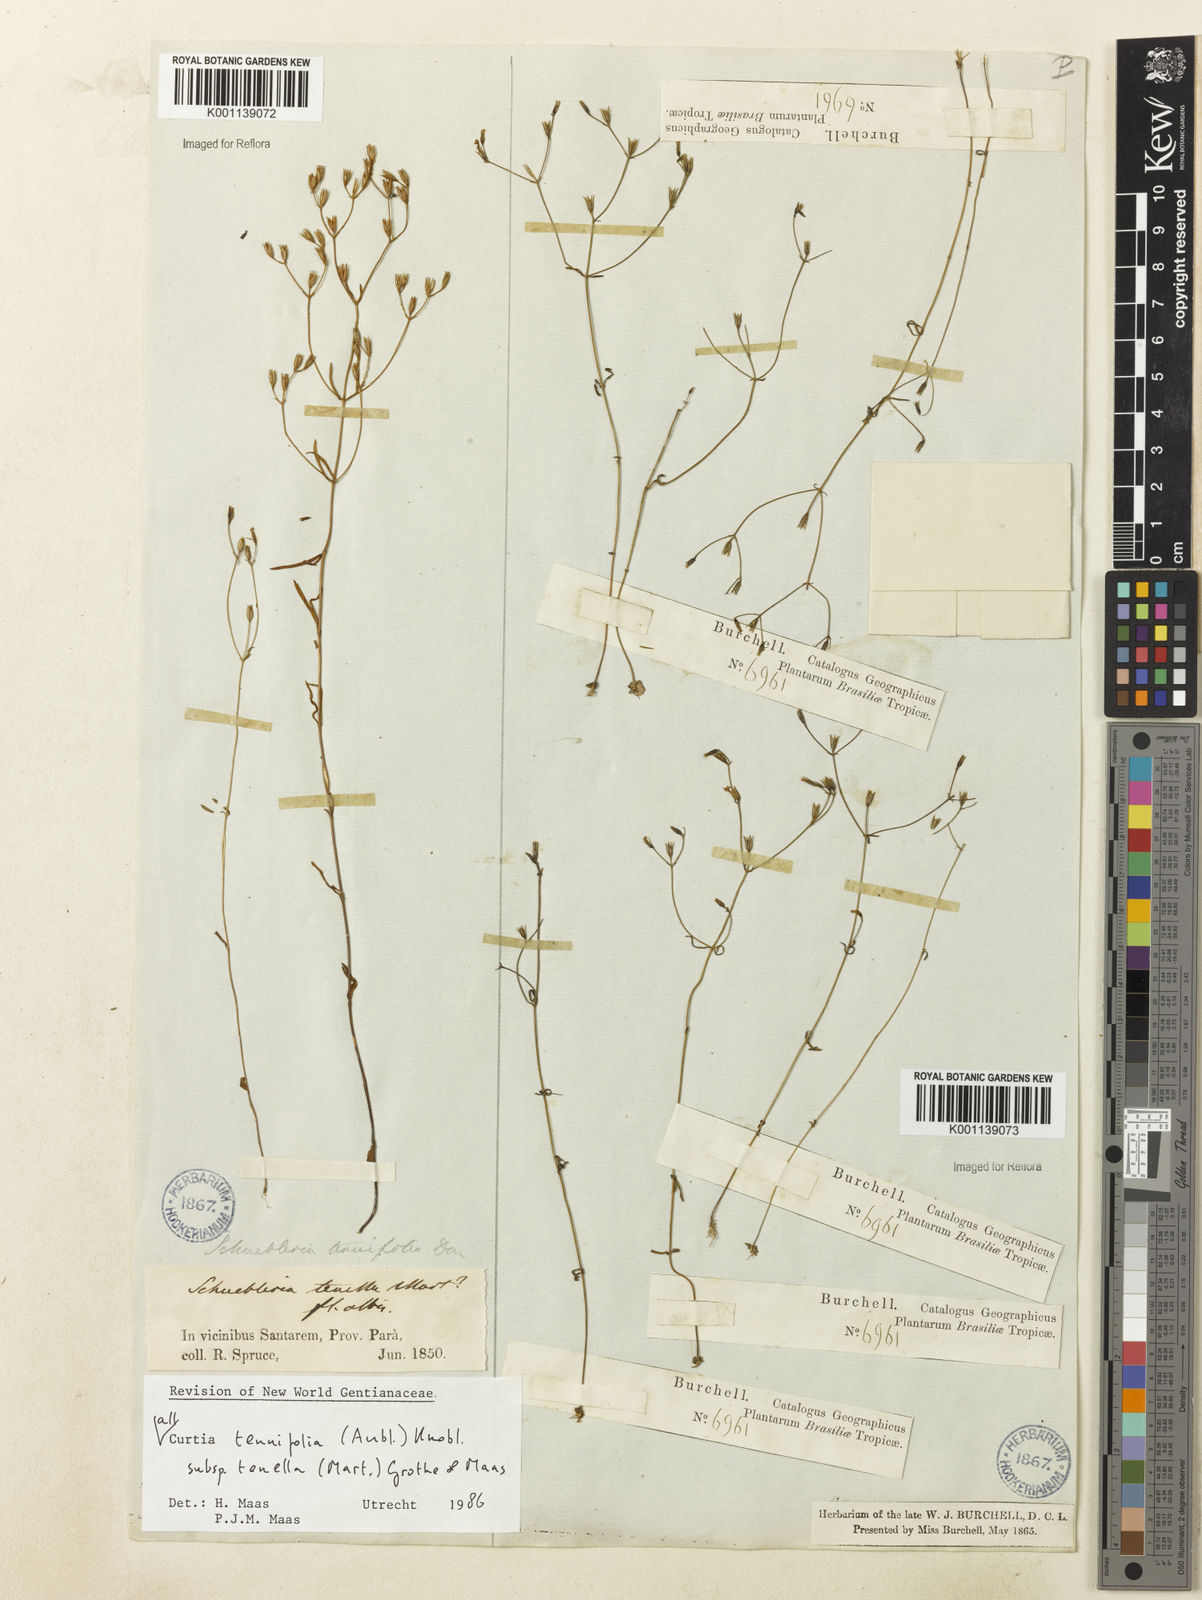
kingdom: Plantae
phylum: Tracheophyta
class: Magnoliopsida
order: Gentianales
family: Gentianaceae
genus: Curtia
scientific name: Curtia tenella
